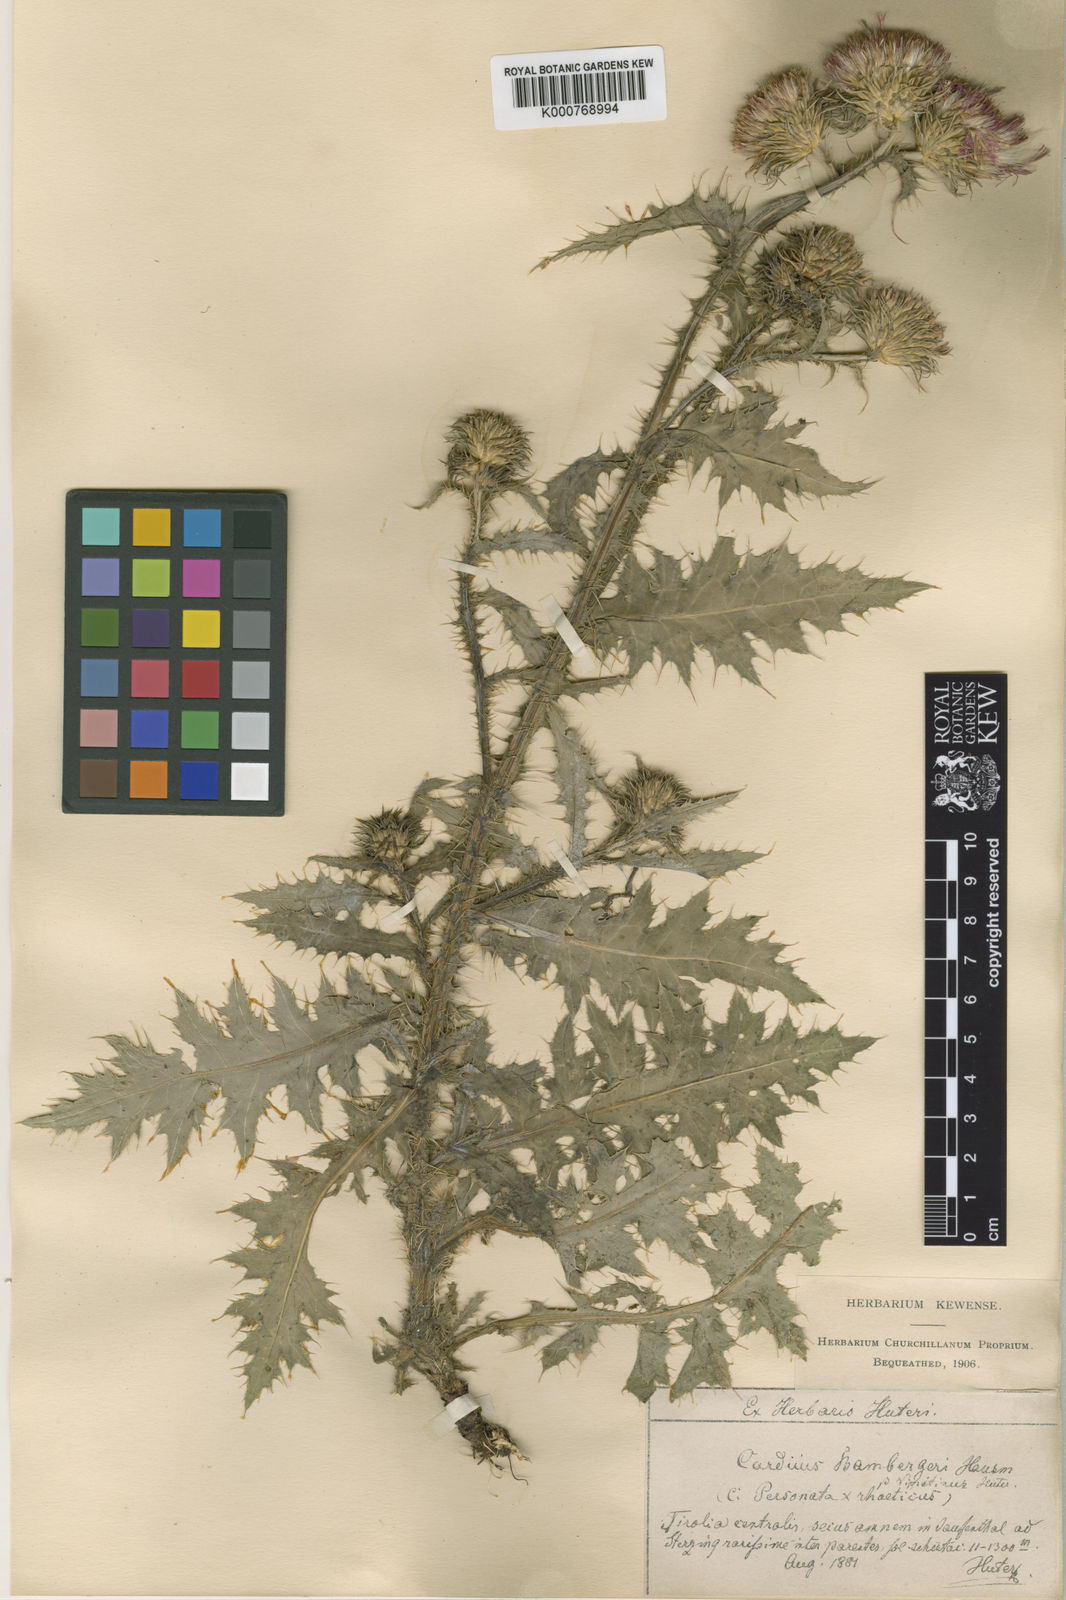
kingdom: Plantae
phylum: Tracheophyta
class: Magnoliopsida
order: Asterales
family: Asteraceae
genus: Carduus
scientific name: Carduus defloratus
